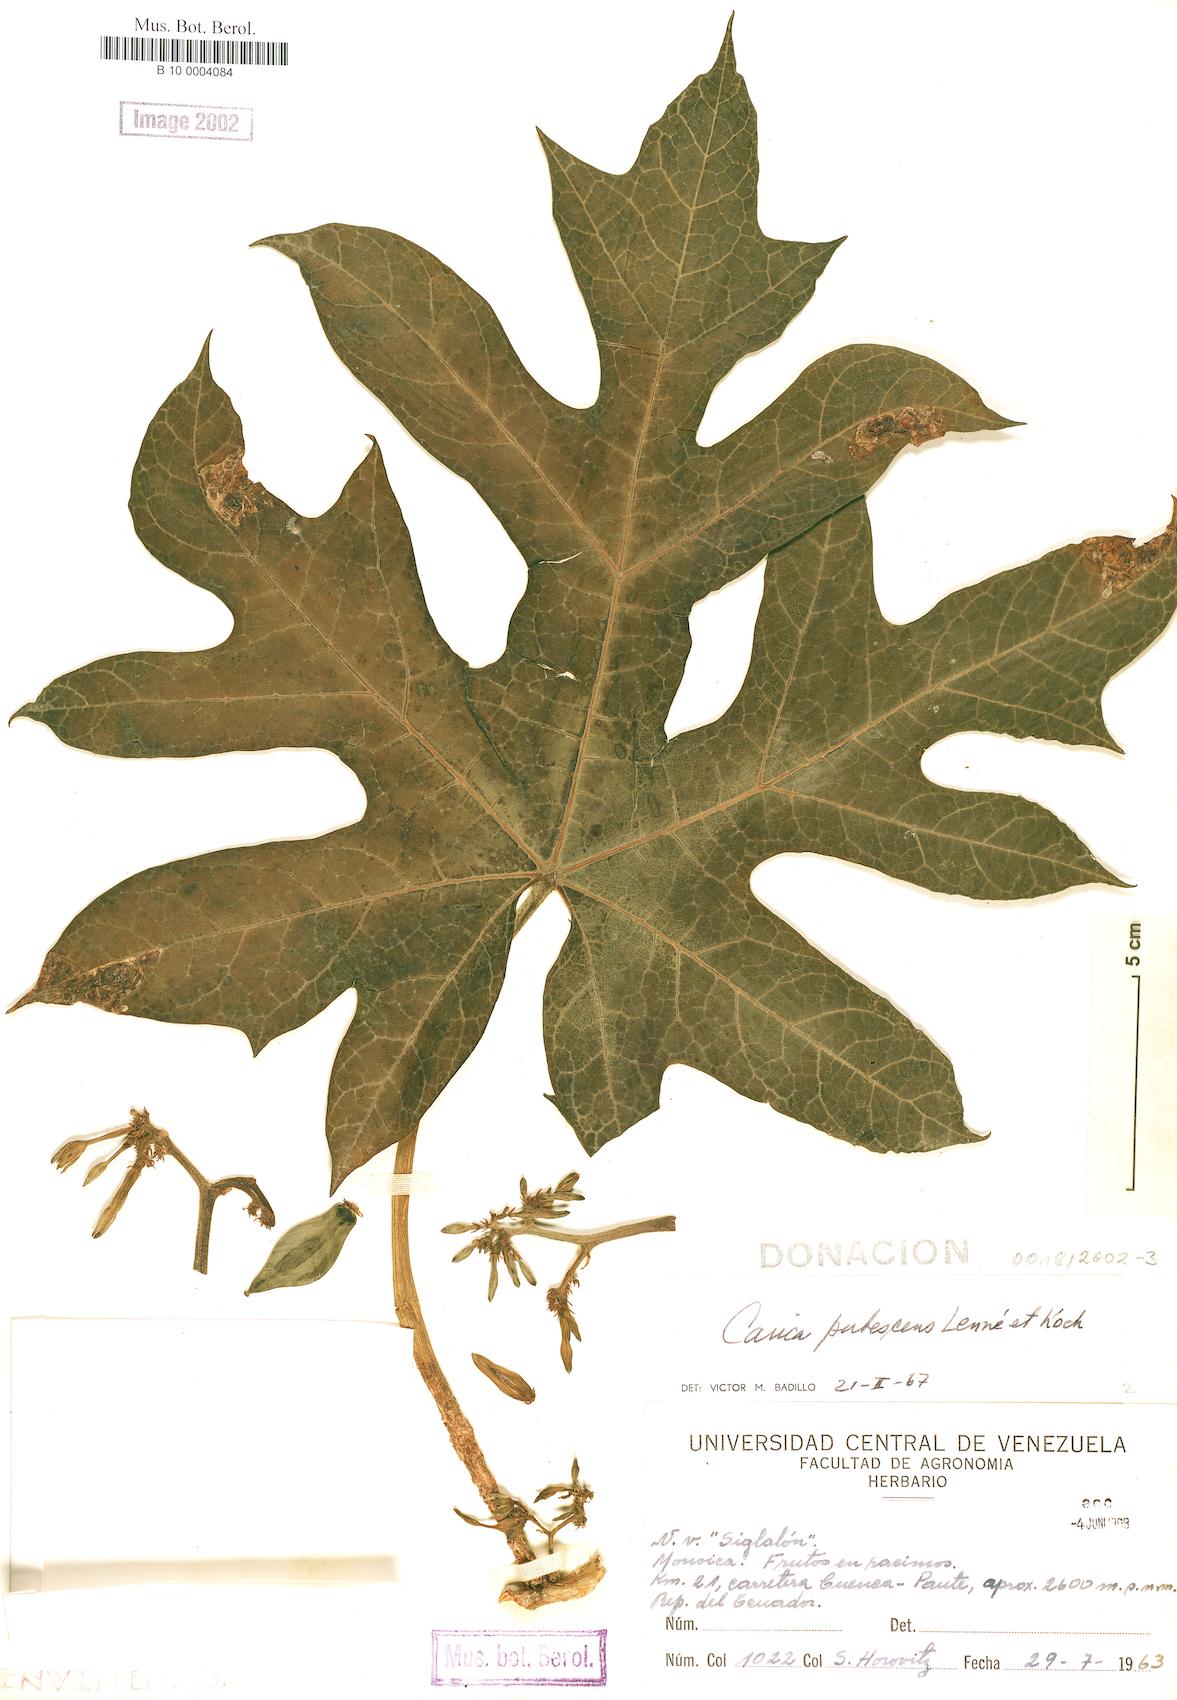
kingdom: Plantae
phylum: Tracheophyta
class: Magnoliopsida
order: Brassicales
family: Caricaceae
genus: Vasconcellea
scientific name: Vasconcellea pubescens
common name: Mountain papaya
